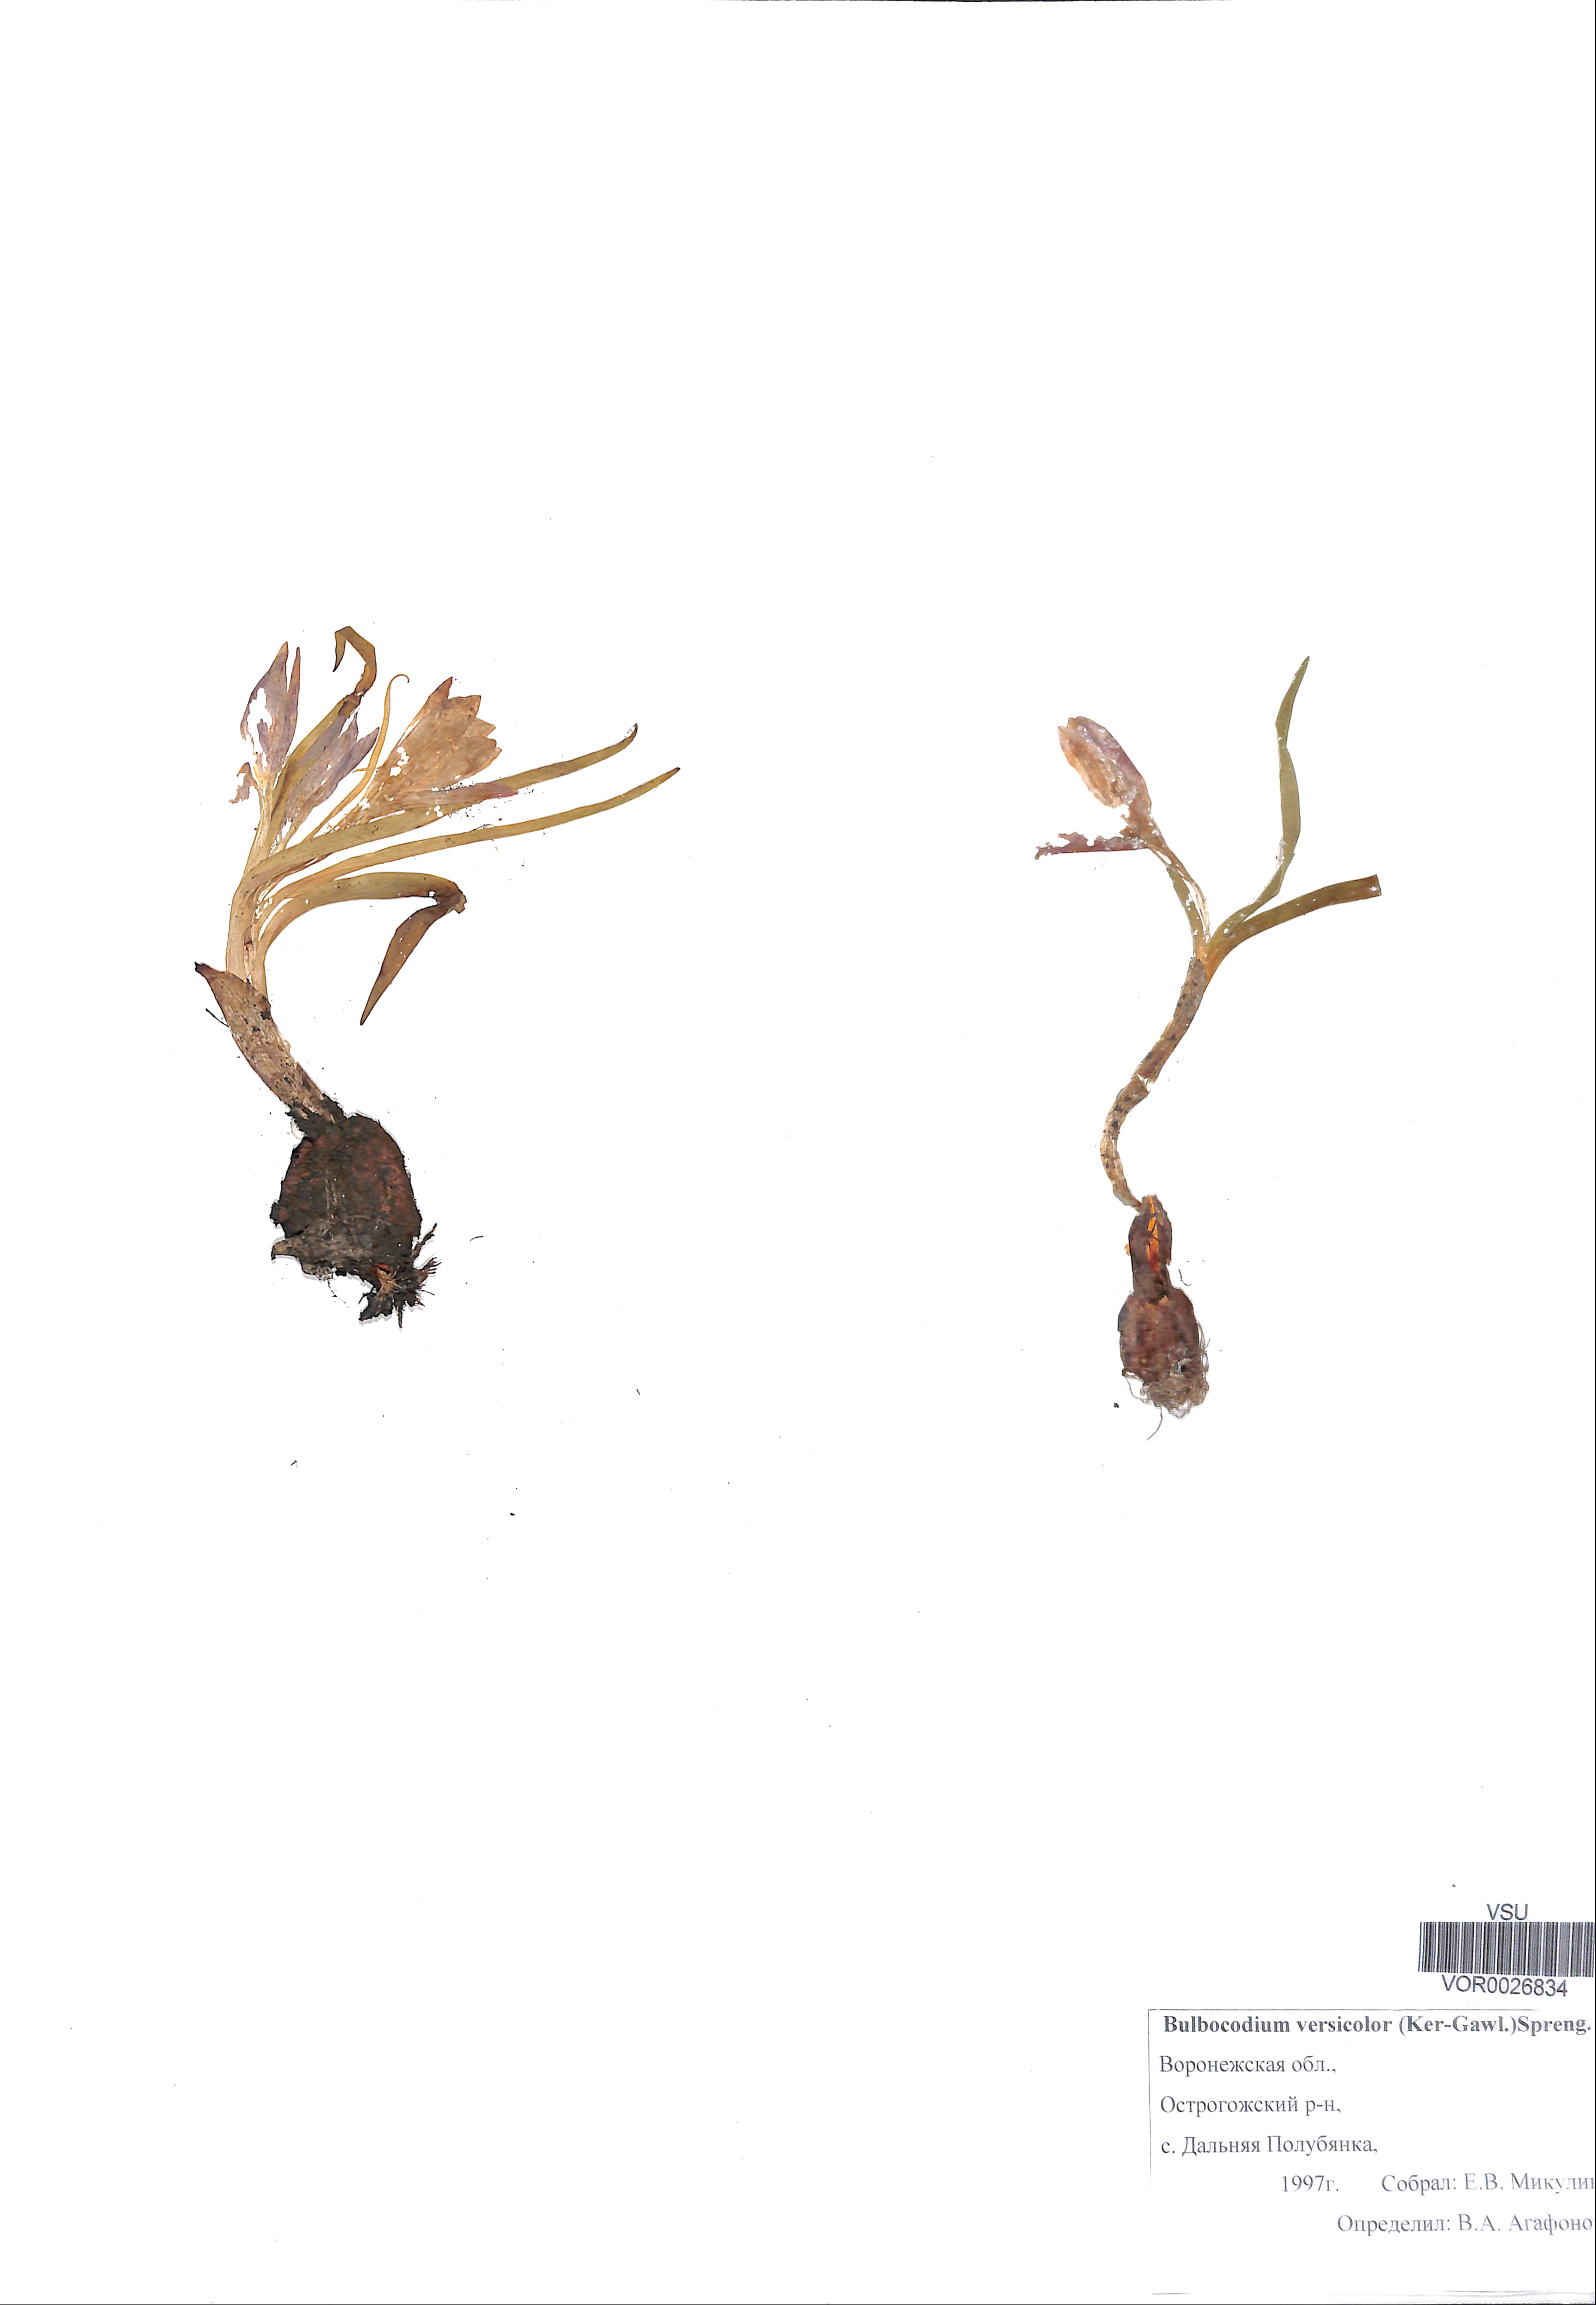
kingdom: Plantae
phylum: Tracheophyta
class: Liliopsida
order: Liliales
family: Colchicaceae
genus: Colchicum
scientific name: Colchicum bulbocodium
